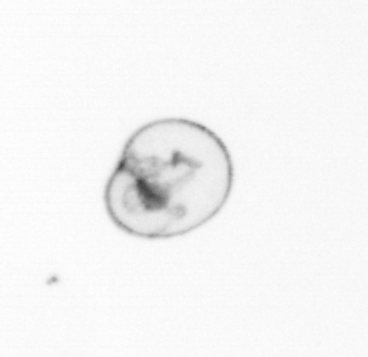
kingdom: Chromista
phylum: Myzozoa
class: Dinophyceae
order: Noctilucales
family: Noctilucaceae
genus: Noctiluca
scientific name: Noctiluca scintillans
